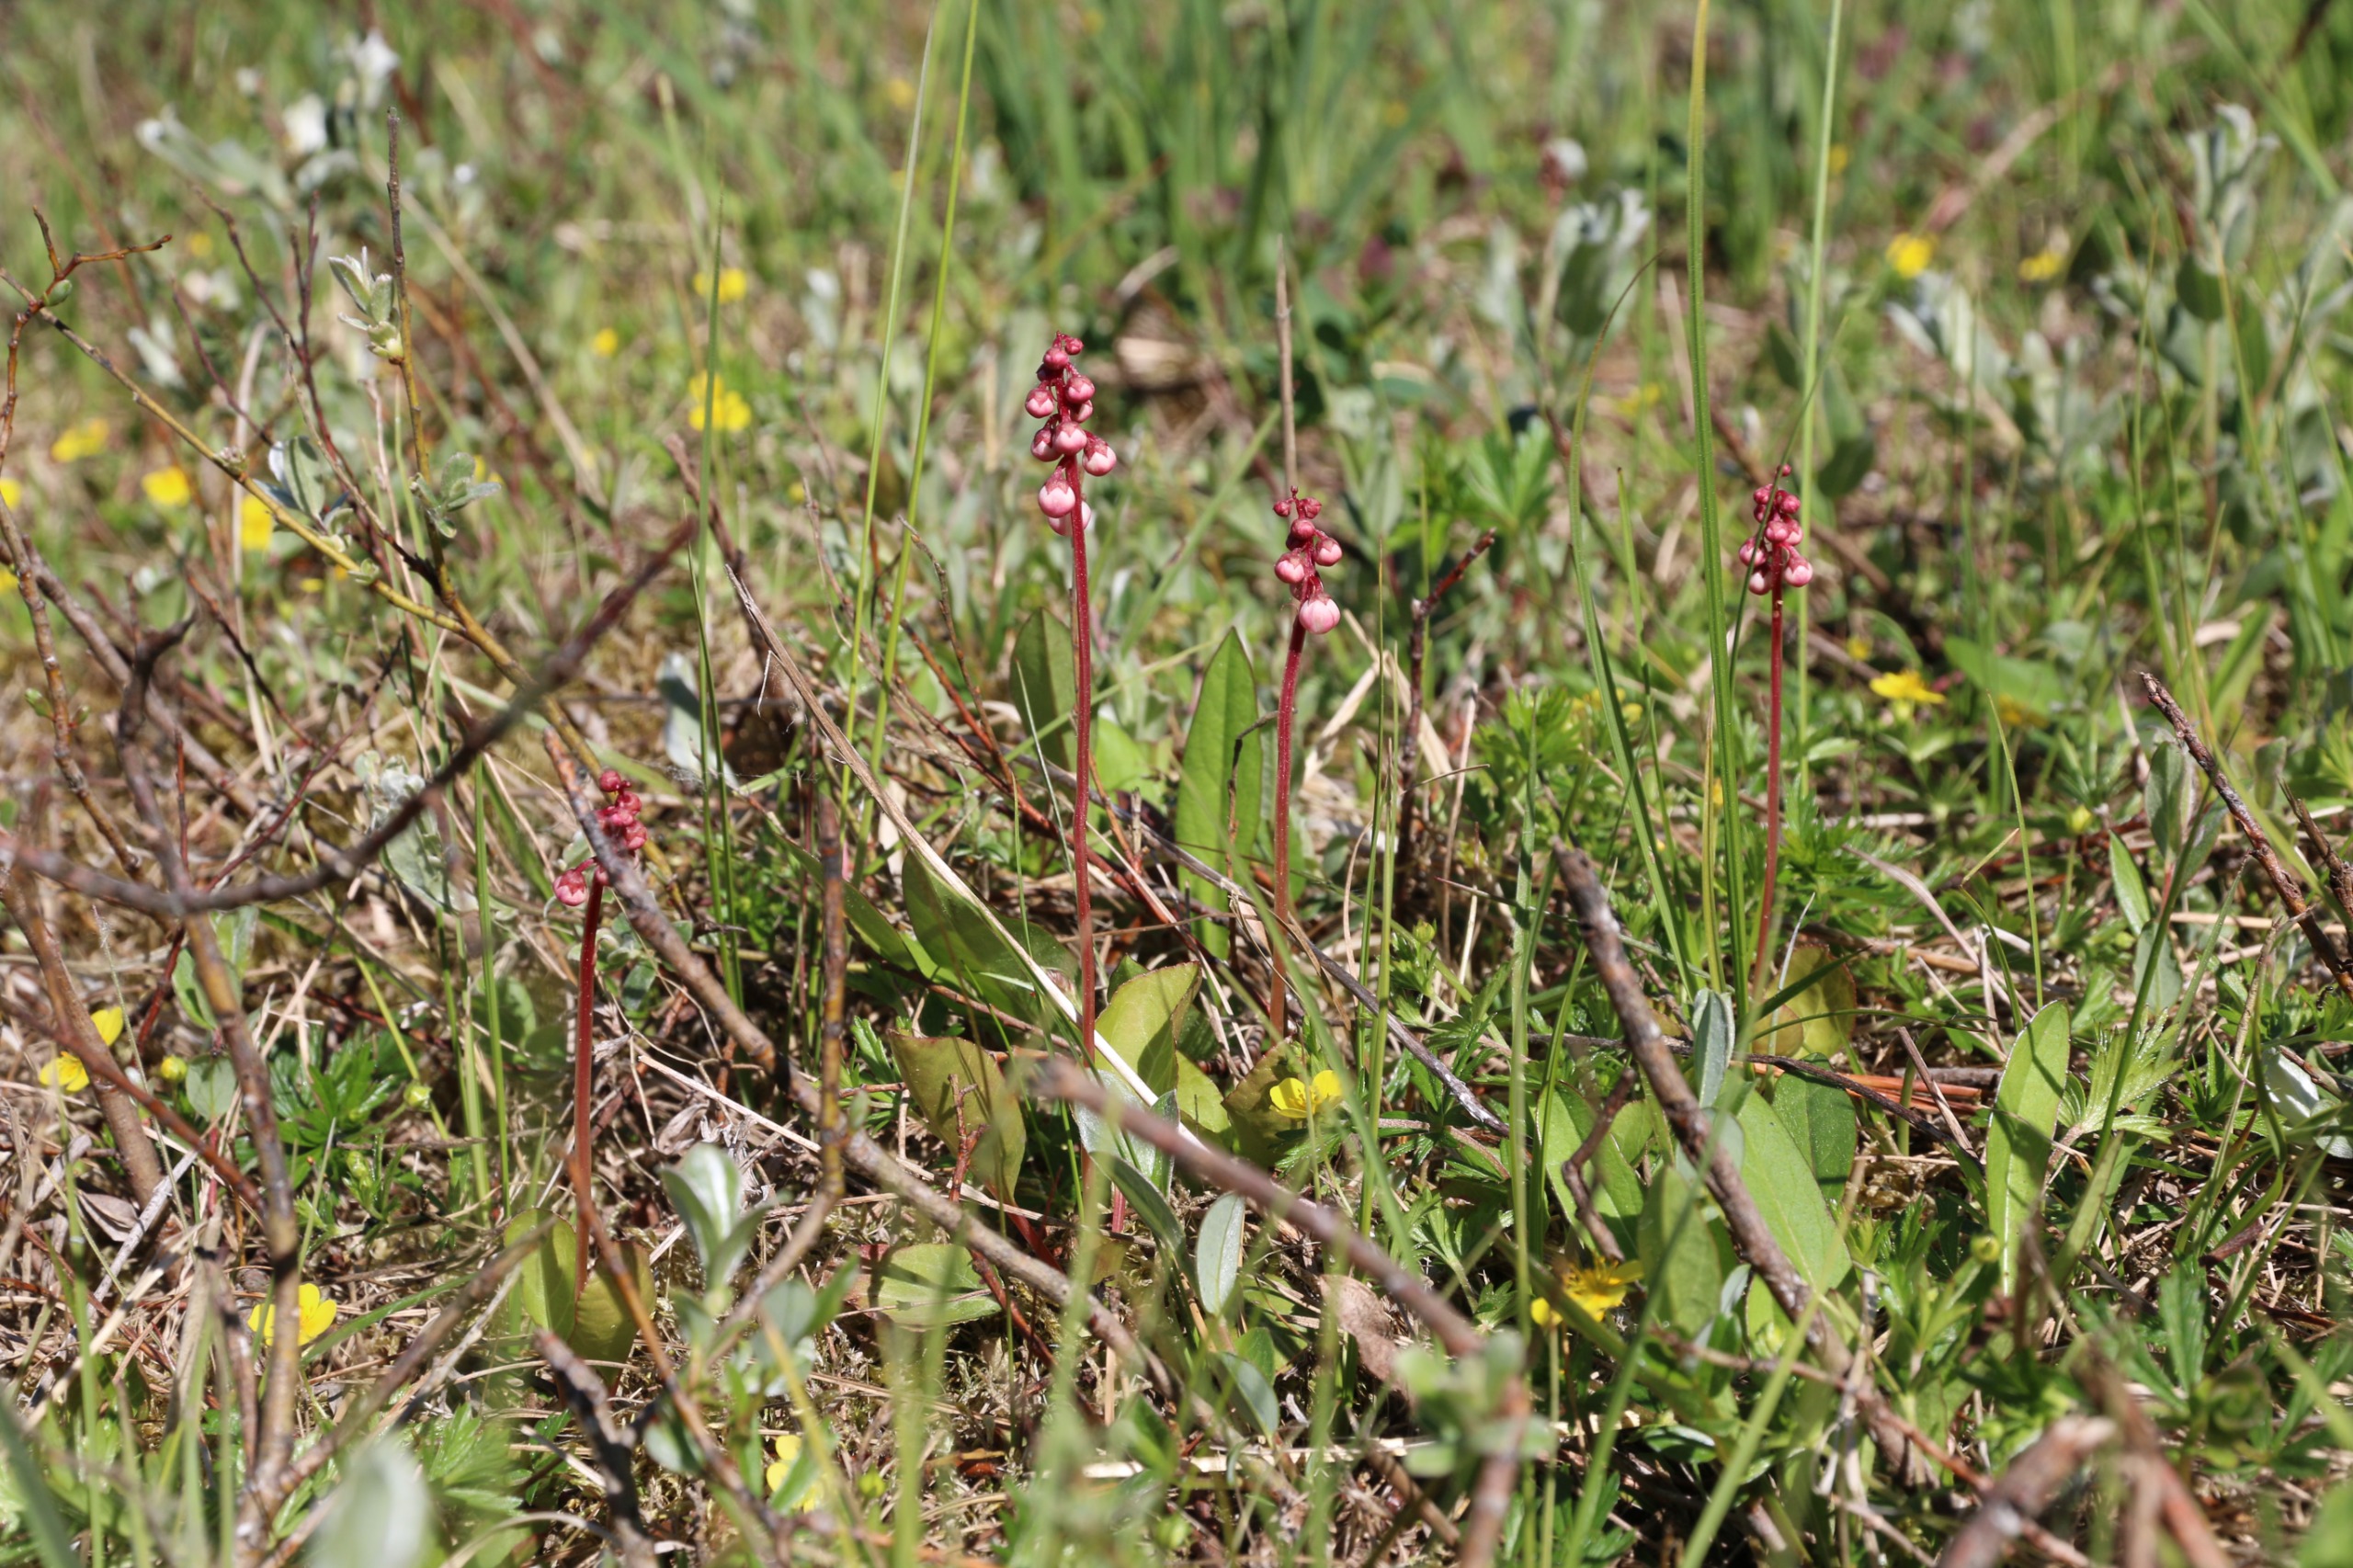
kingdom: Plantae
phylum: Tracheophyta
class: Magnoliopsida
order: Ericales
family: Ericaceae
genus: Pyrola
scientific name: Pyrola minor
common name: Liden vintergrøn
